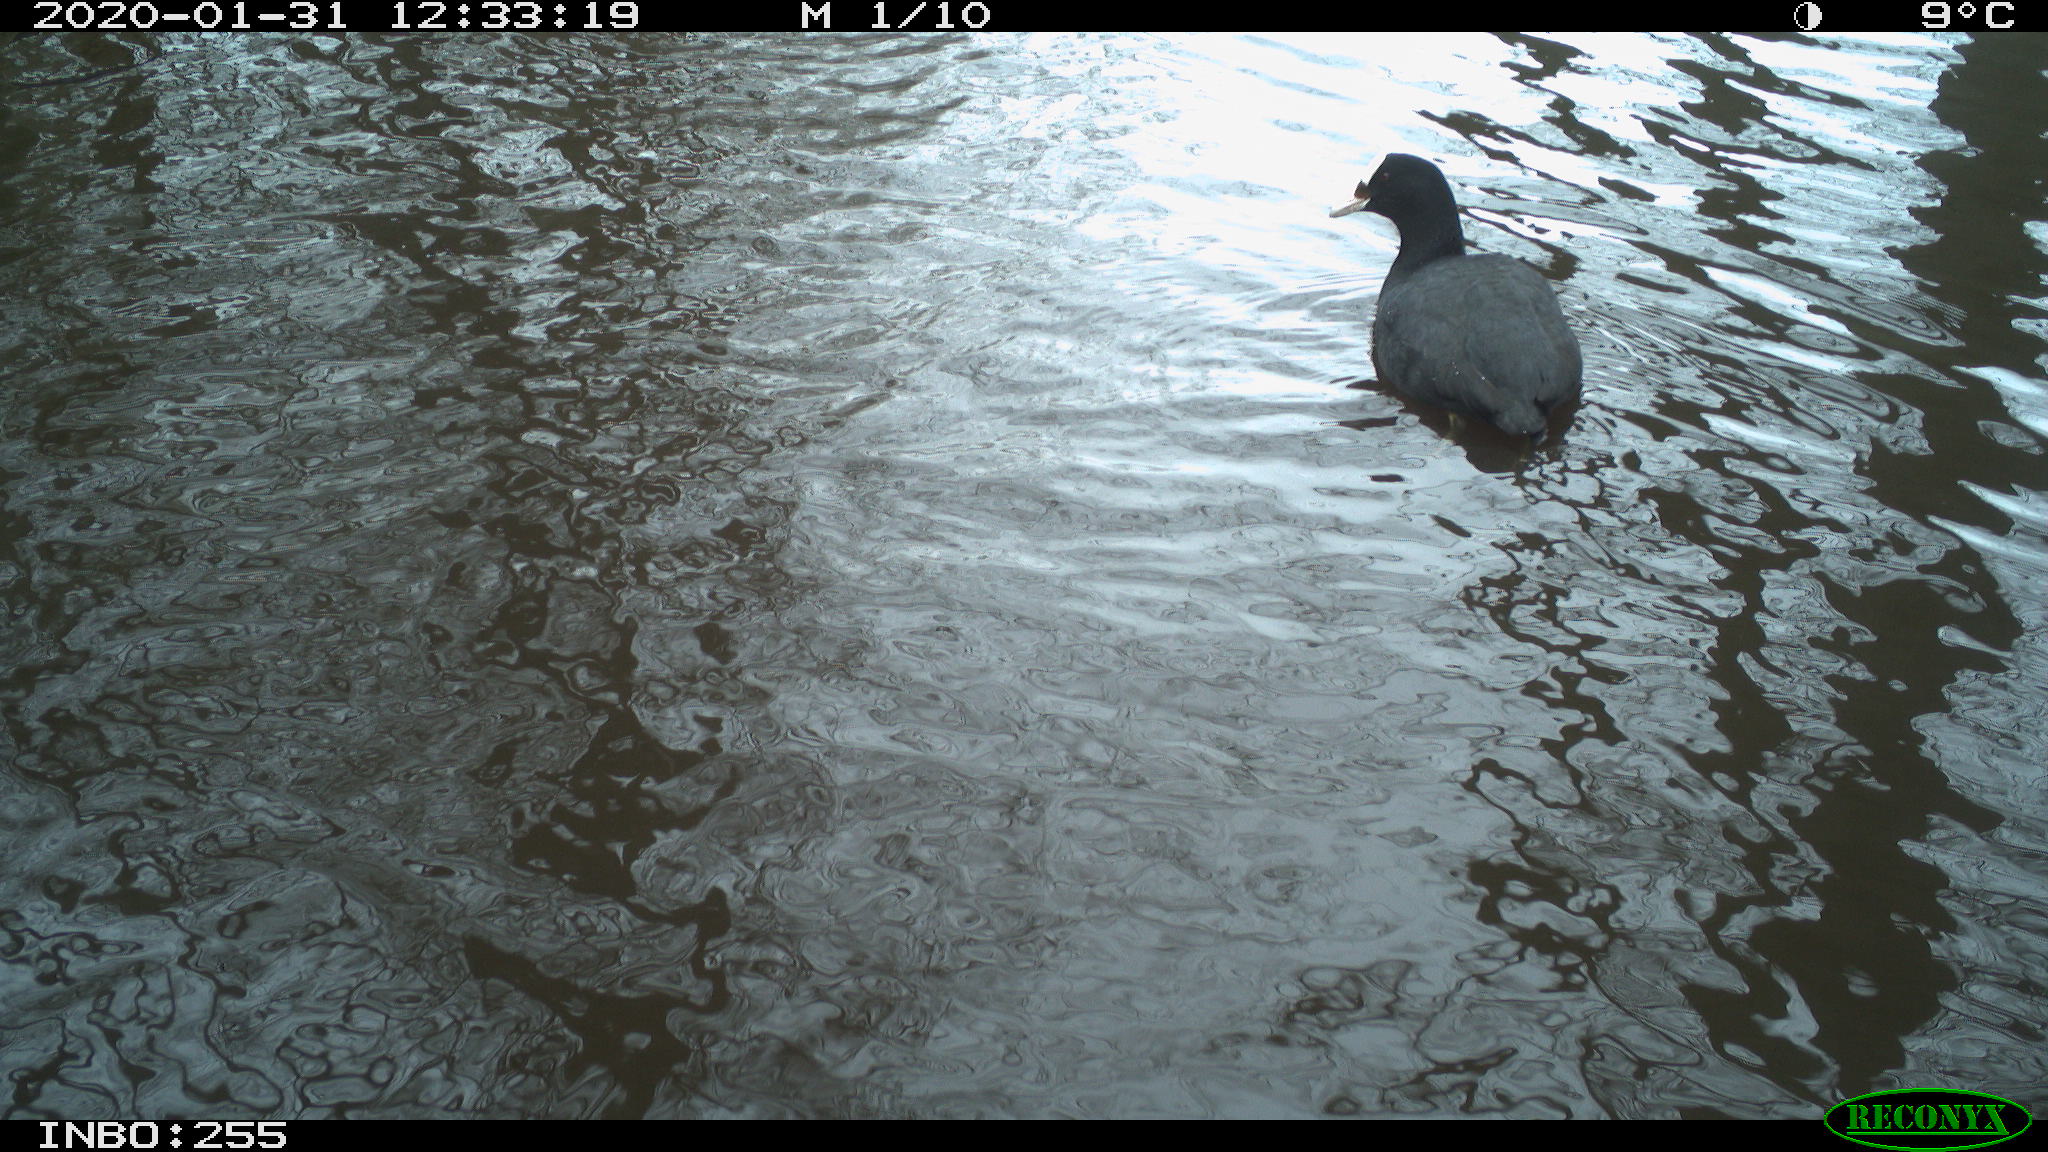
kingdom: Animalia
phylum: Chordata
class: Aves
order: Gruiformes
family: Rallidae
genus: Fulica
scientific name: Fulica atra
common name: Eurasian coot
